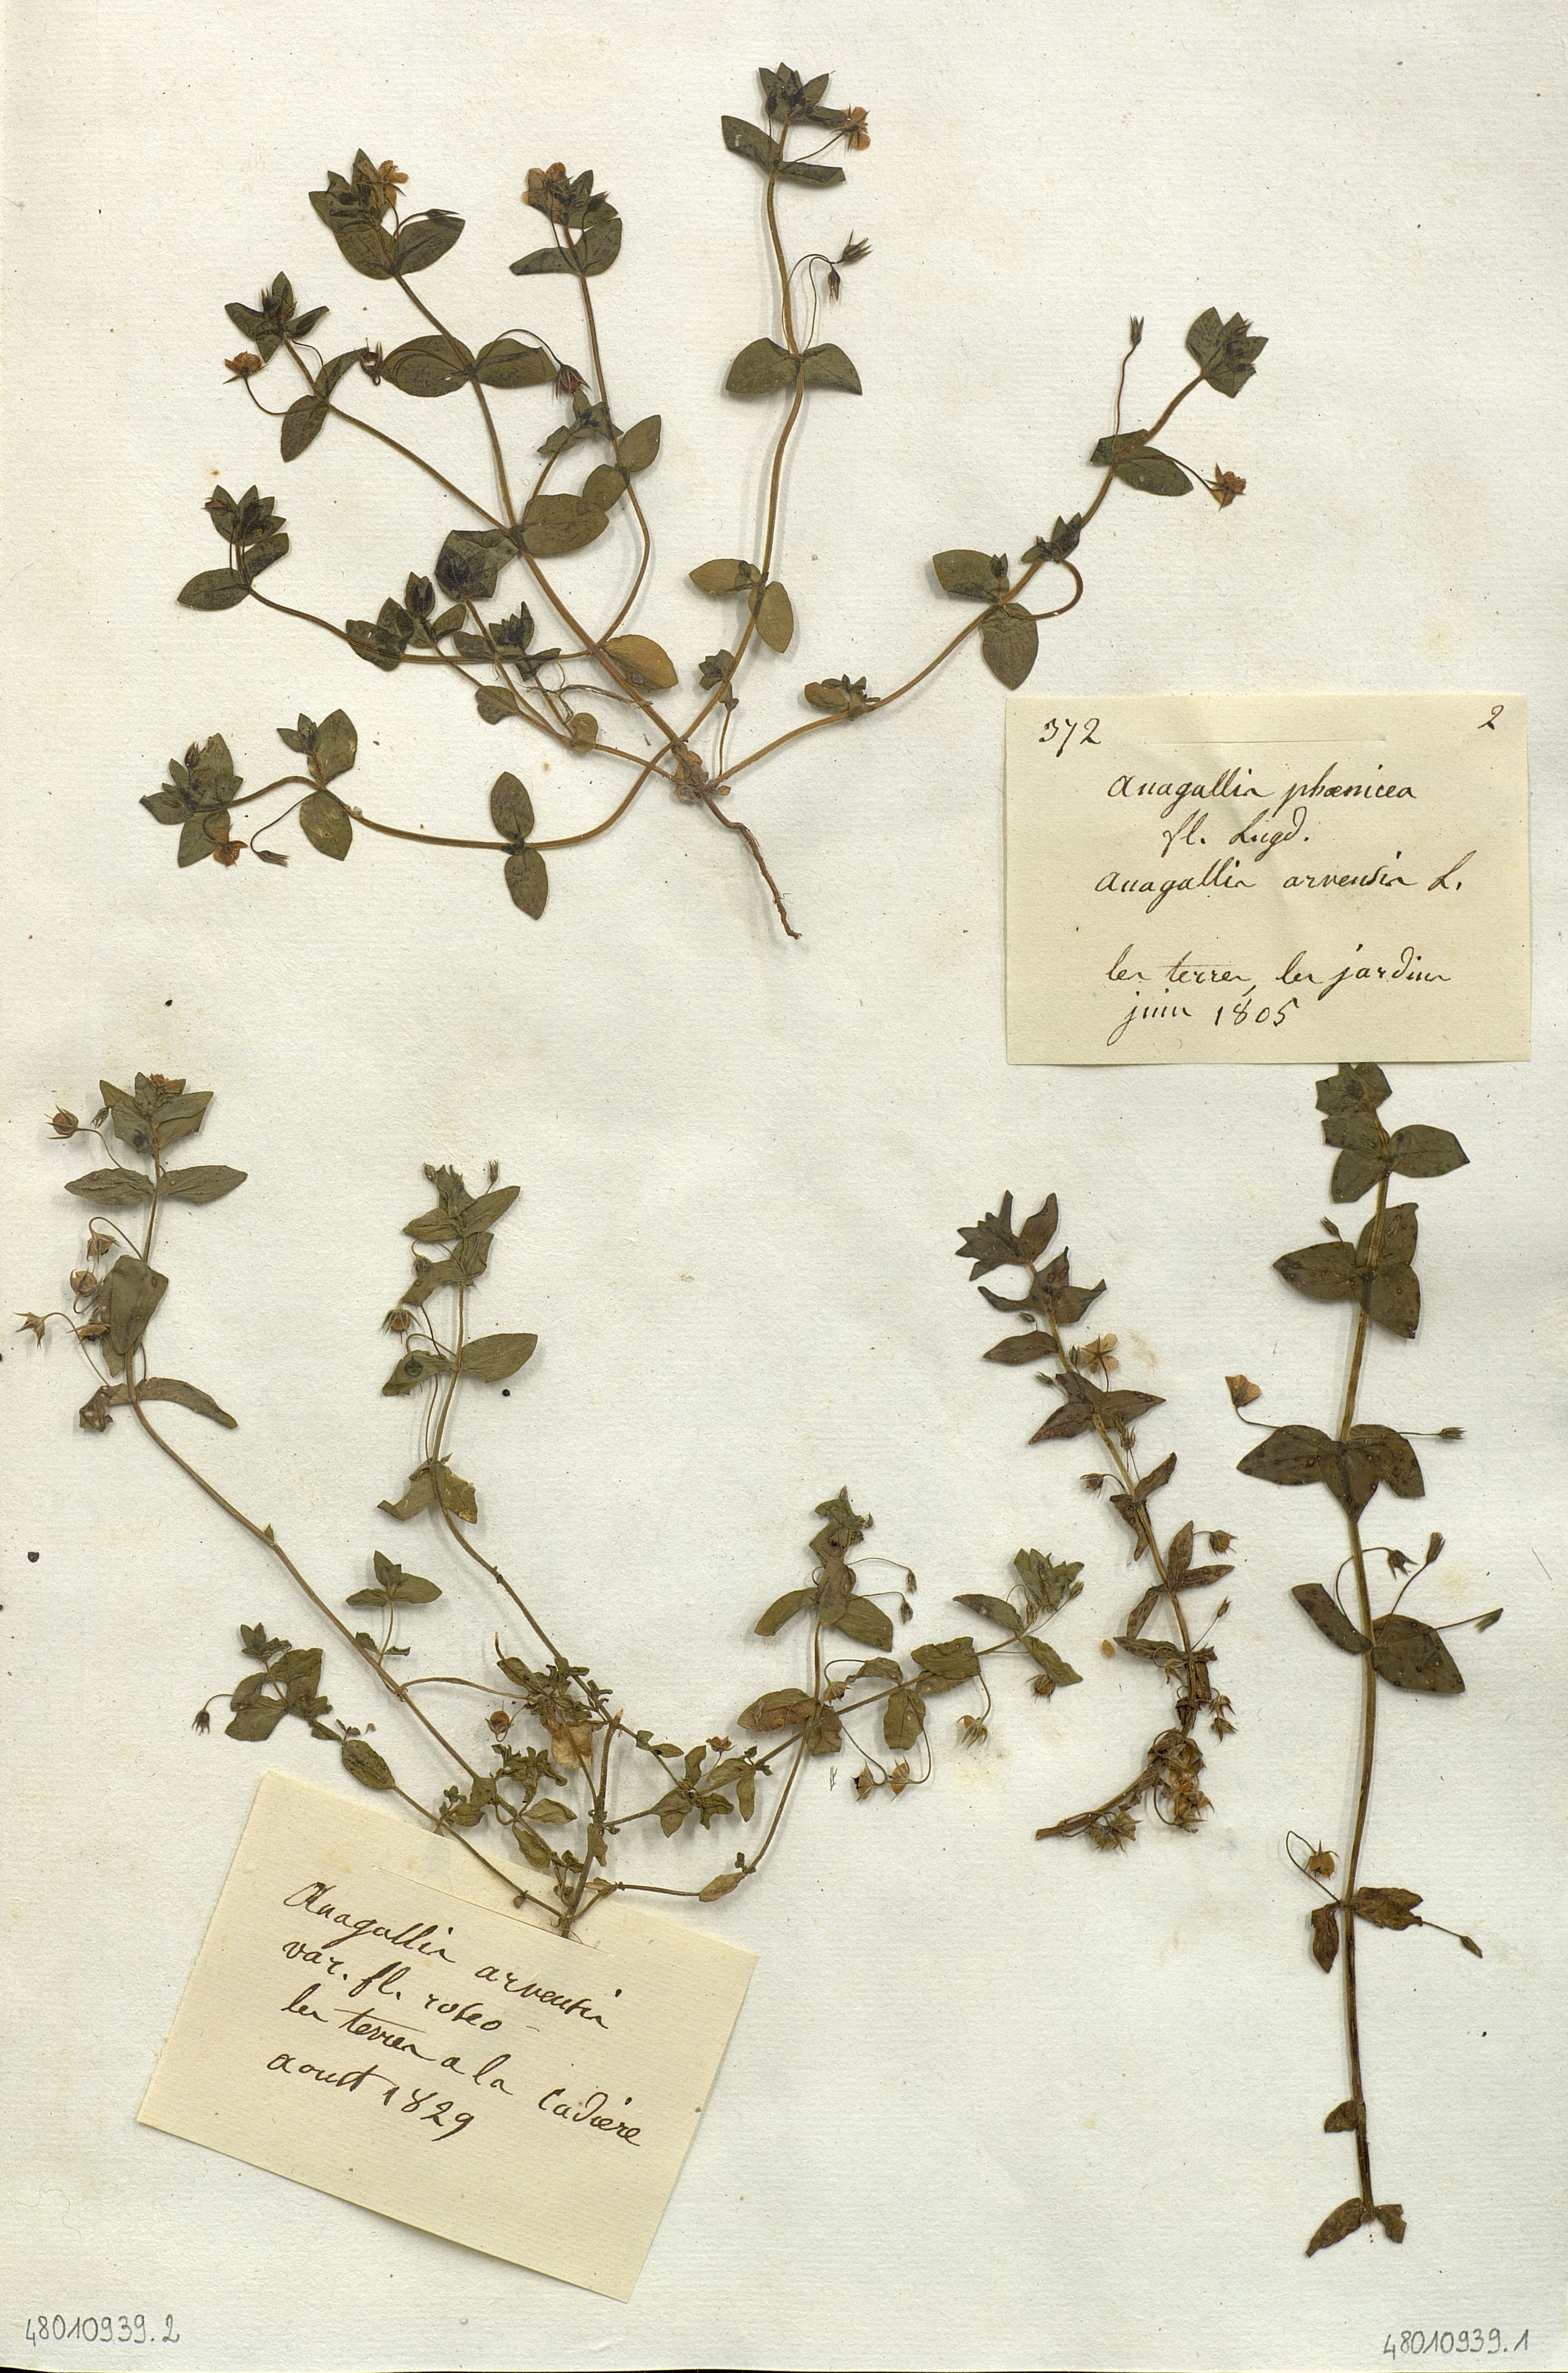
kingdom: Plantae
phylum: Tracheophyta
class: Magnoliopsida
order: Ericales
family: Primulaceae
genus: Lysimachia
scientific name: Lysimachia arvensis
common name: Scarlet pimpernel
